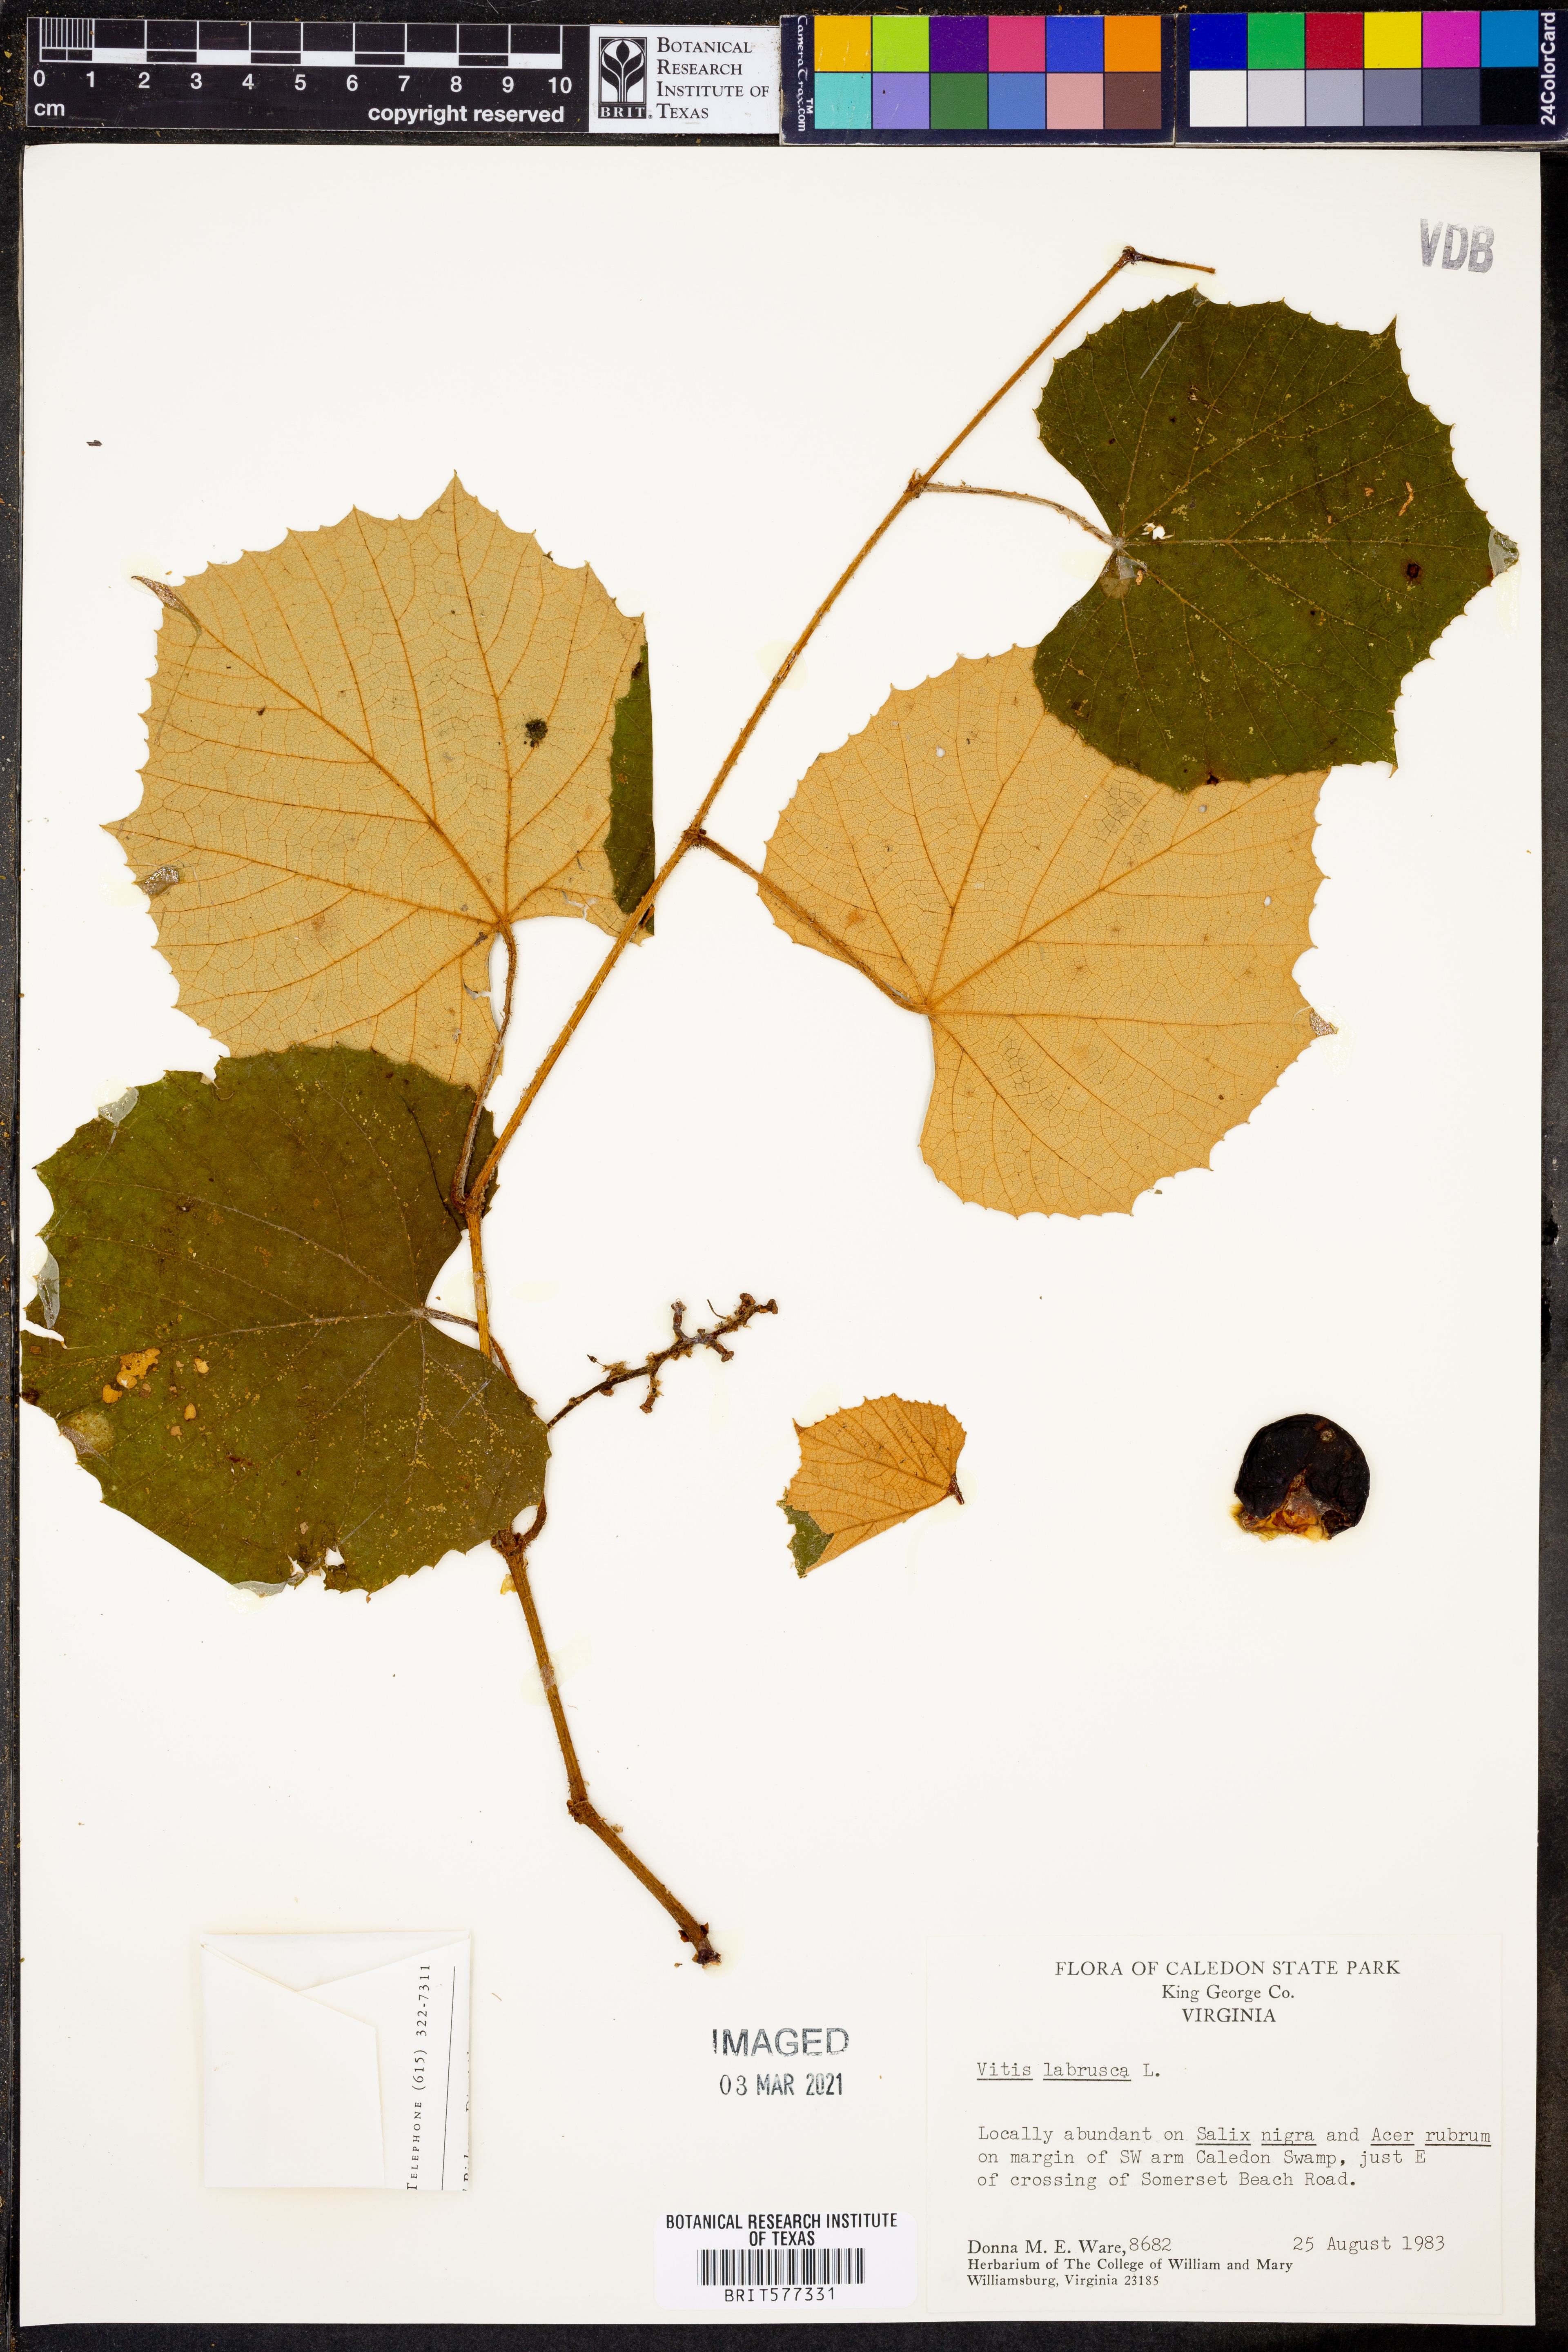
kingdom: Plantae
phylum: Tracheophyta
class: Magnoliopsida
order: Vitales
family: Vitaceae
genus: Vitis
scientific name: Vitis labrusca
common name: Concord grape
